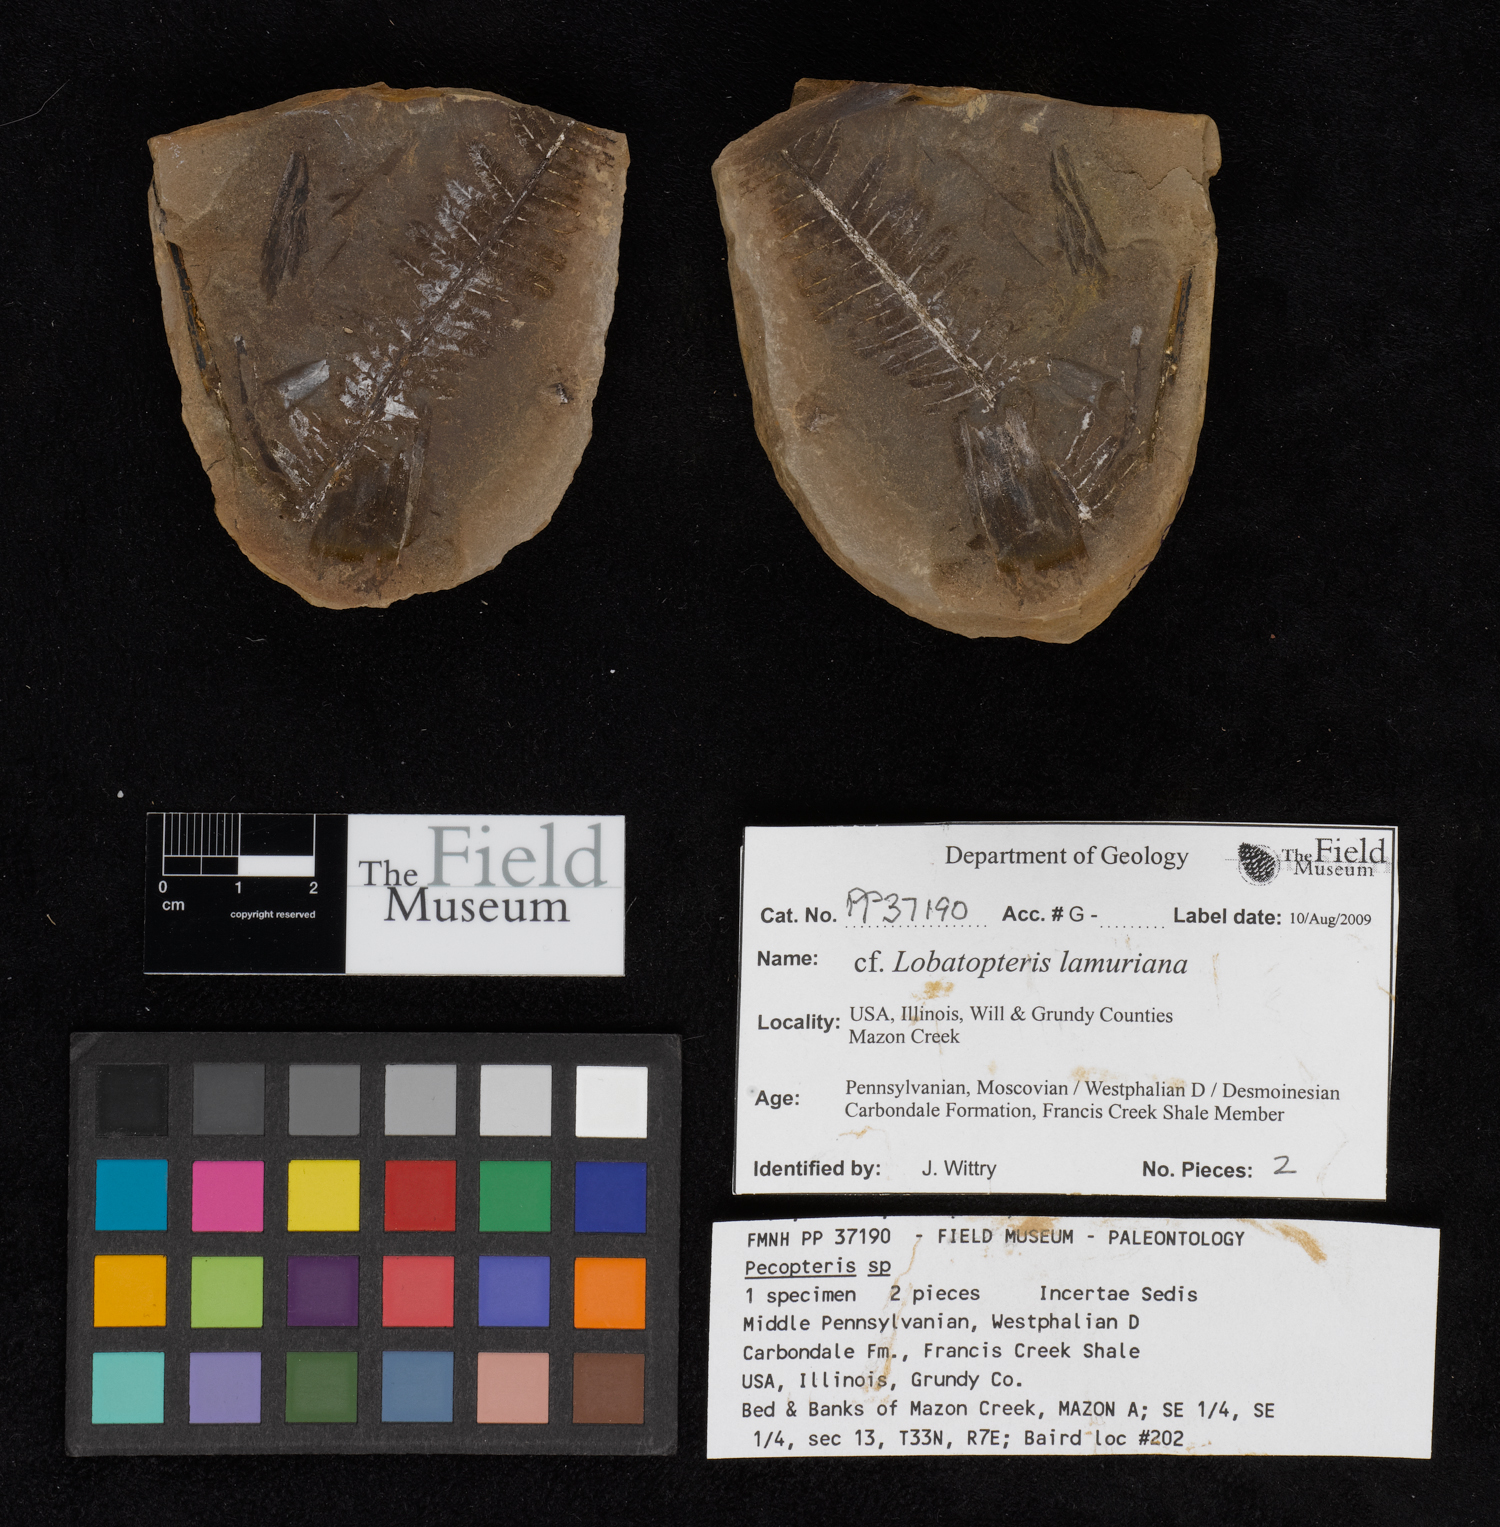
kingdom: Plantae
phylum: Tracheophyta
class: Polypodiopsida
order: Marattiales
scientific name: Marattiales
